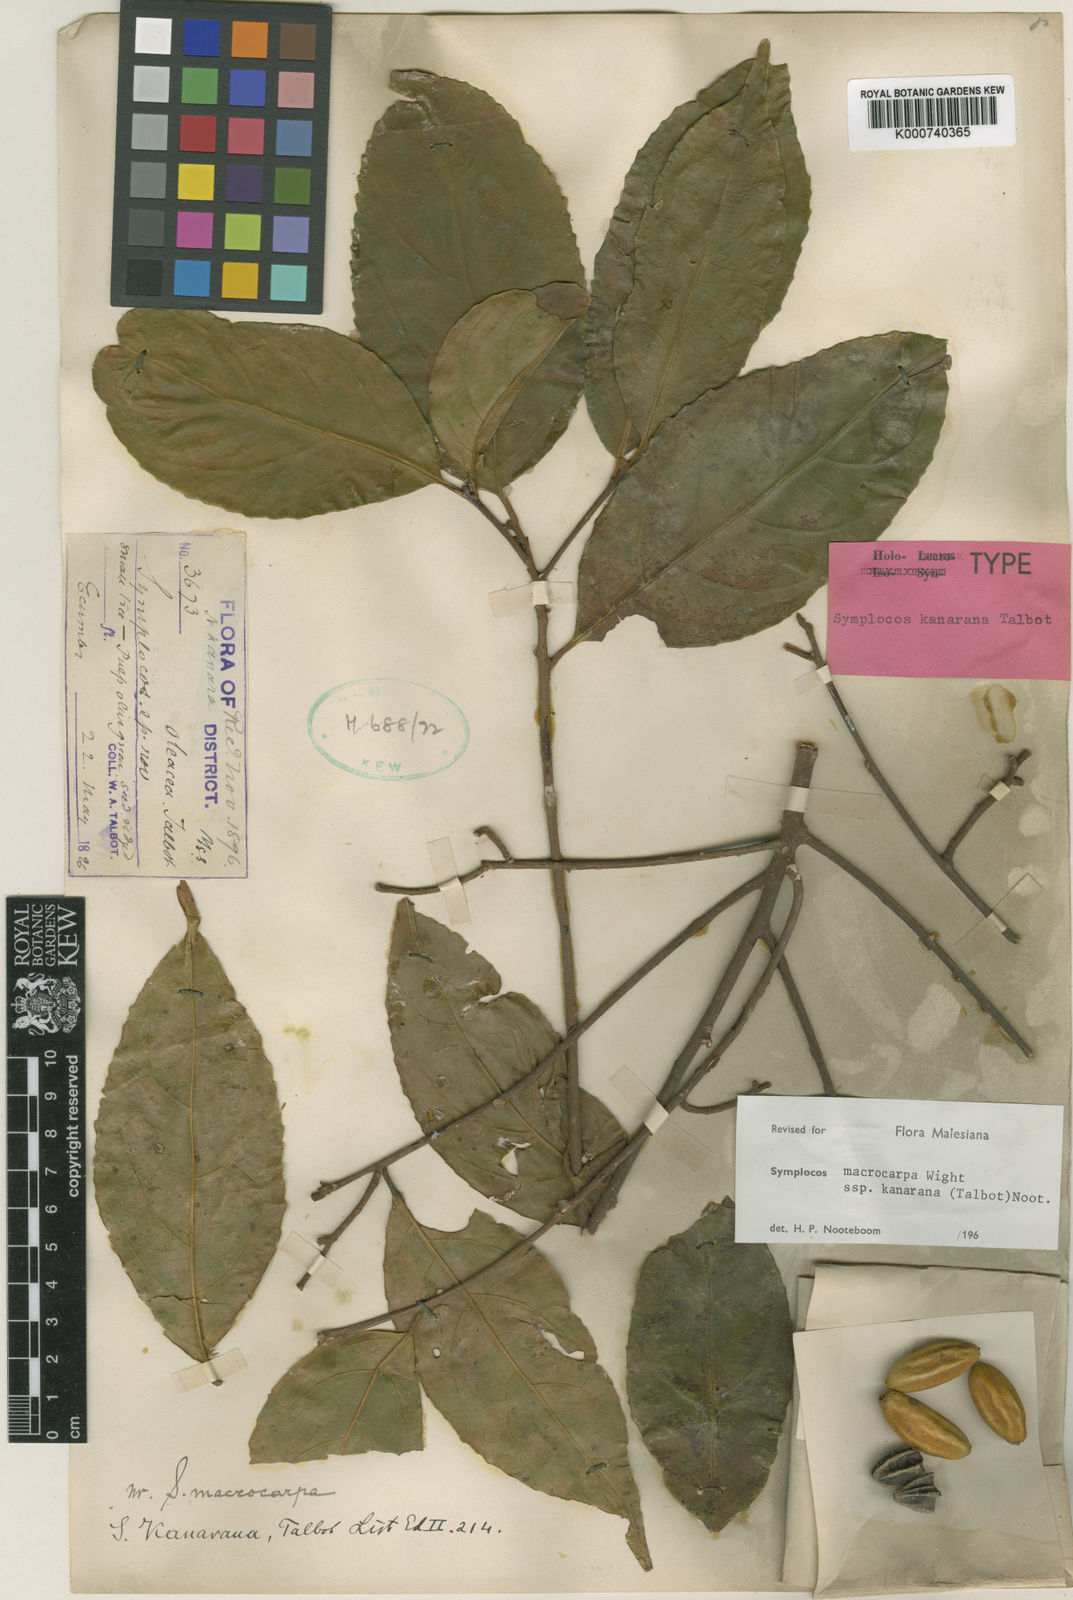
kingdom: Plantae
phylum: Tracheophyta
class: Magnoliopsida
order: Ericales
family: Symplocaceae
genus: Symplocos
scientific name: Symplocos macrocarpa
